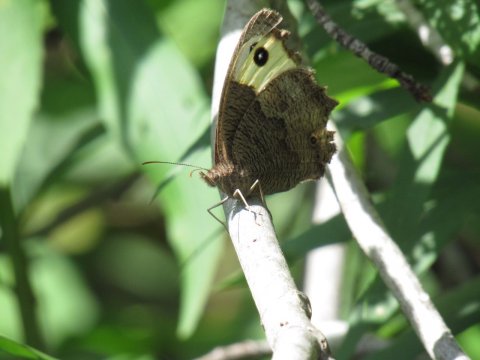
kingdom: Animalia
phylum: Arthropoda
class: Insecta
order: Lepidoptera
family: Nymphalidae
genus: Cercyonis
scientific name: Cercyonis pegala
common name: Common Wood-Nymph
